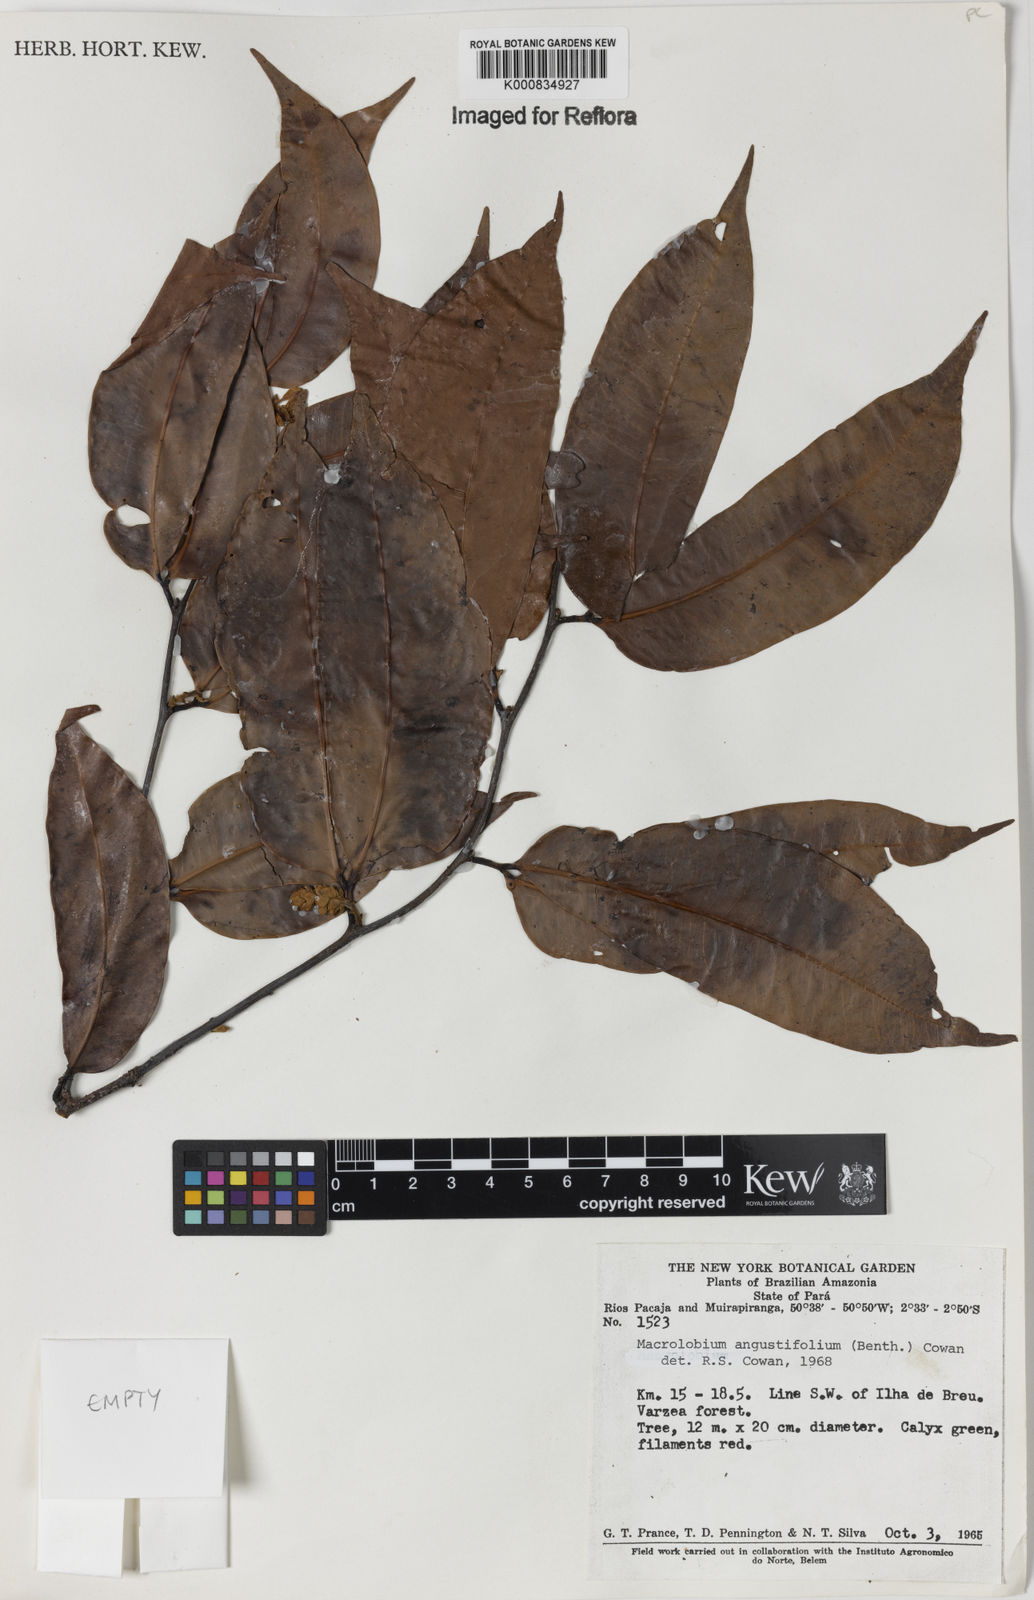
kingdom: Plantae
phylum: Tracheophyta
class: Magnoliopsida
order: Fabales
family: Fabaceae
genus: Macrolobium
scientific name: Macrolobium angustifolium
